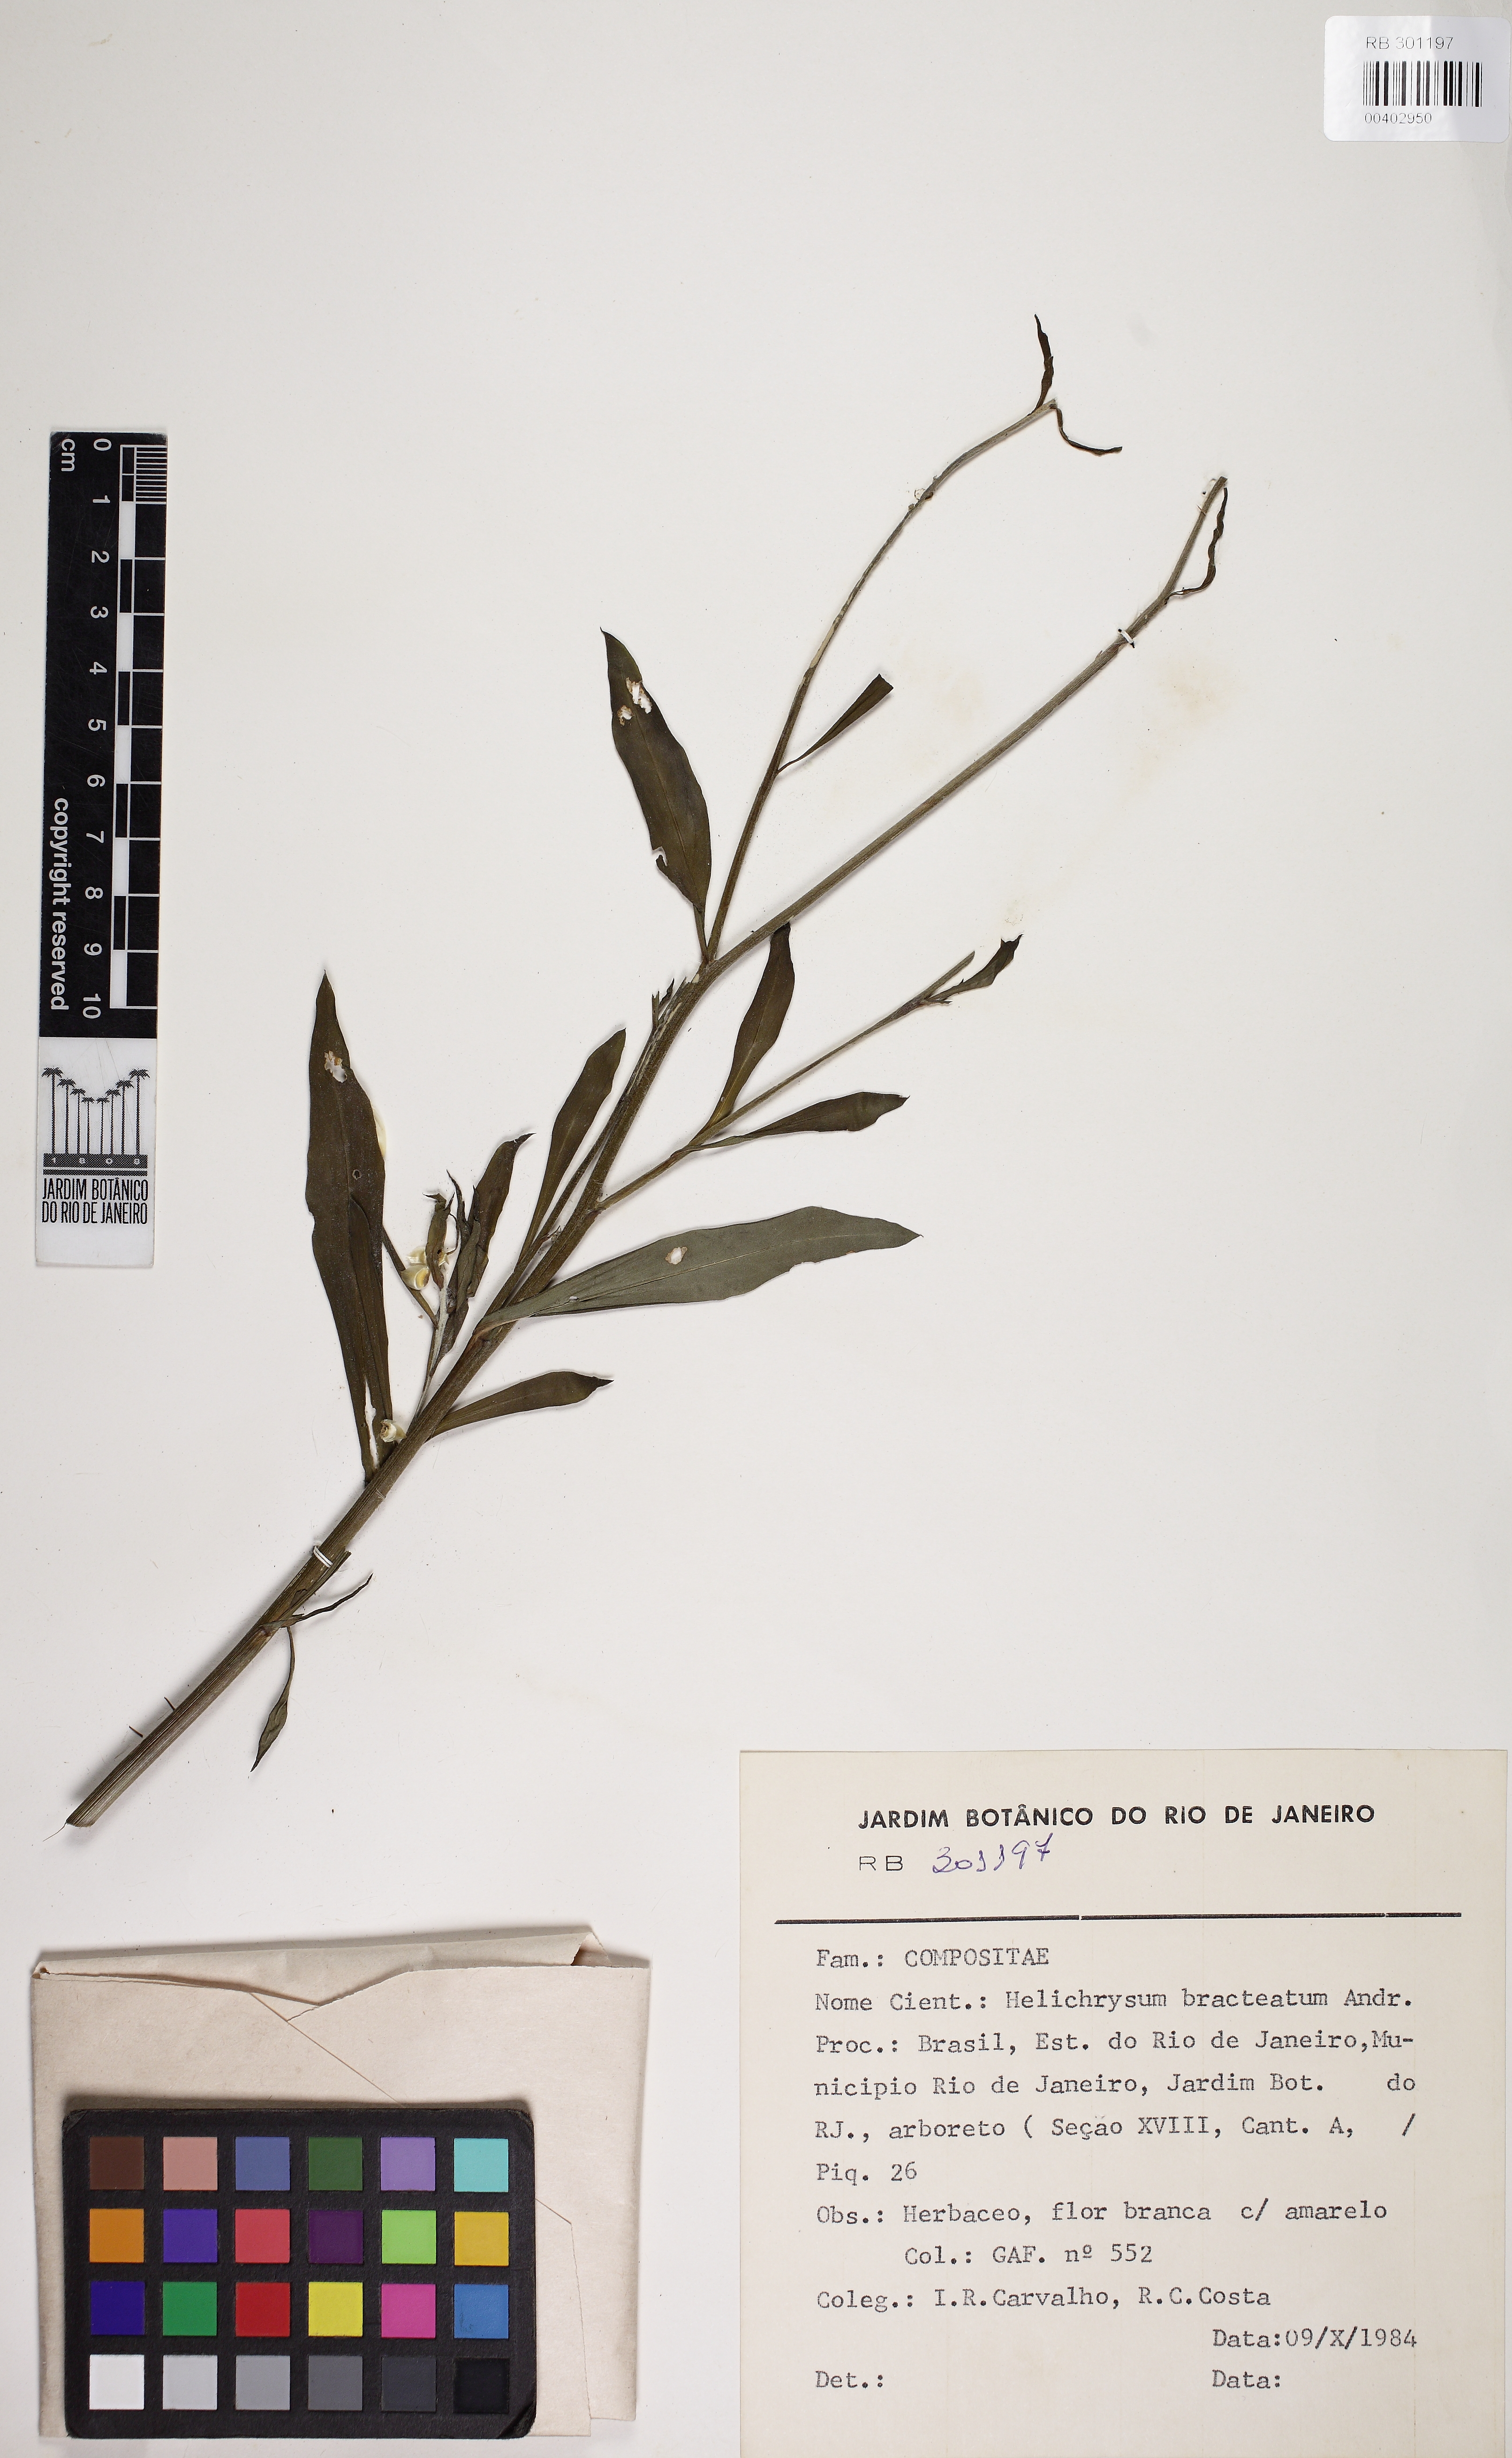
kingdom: Plantae
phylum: Tracheophyta
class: Magnoliopsida
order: Asterales
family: Asteraceae
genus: Xerochrysum
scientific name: Xerochrysum bracteatum
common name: Bracted strawflower
